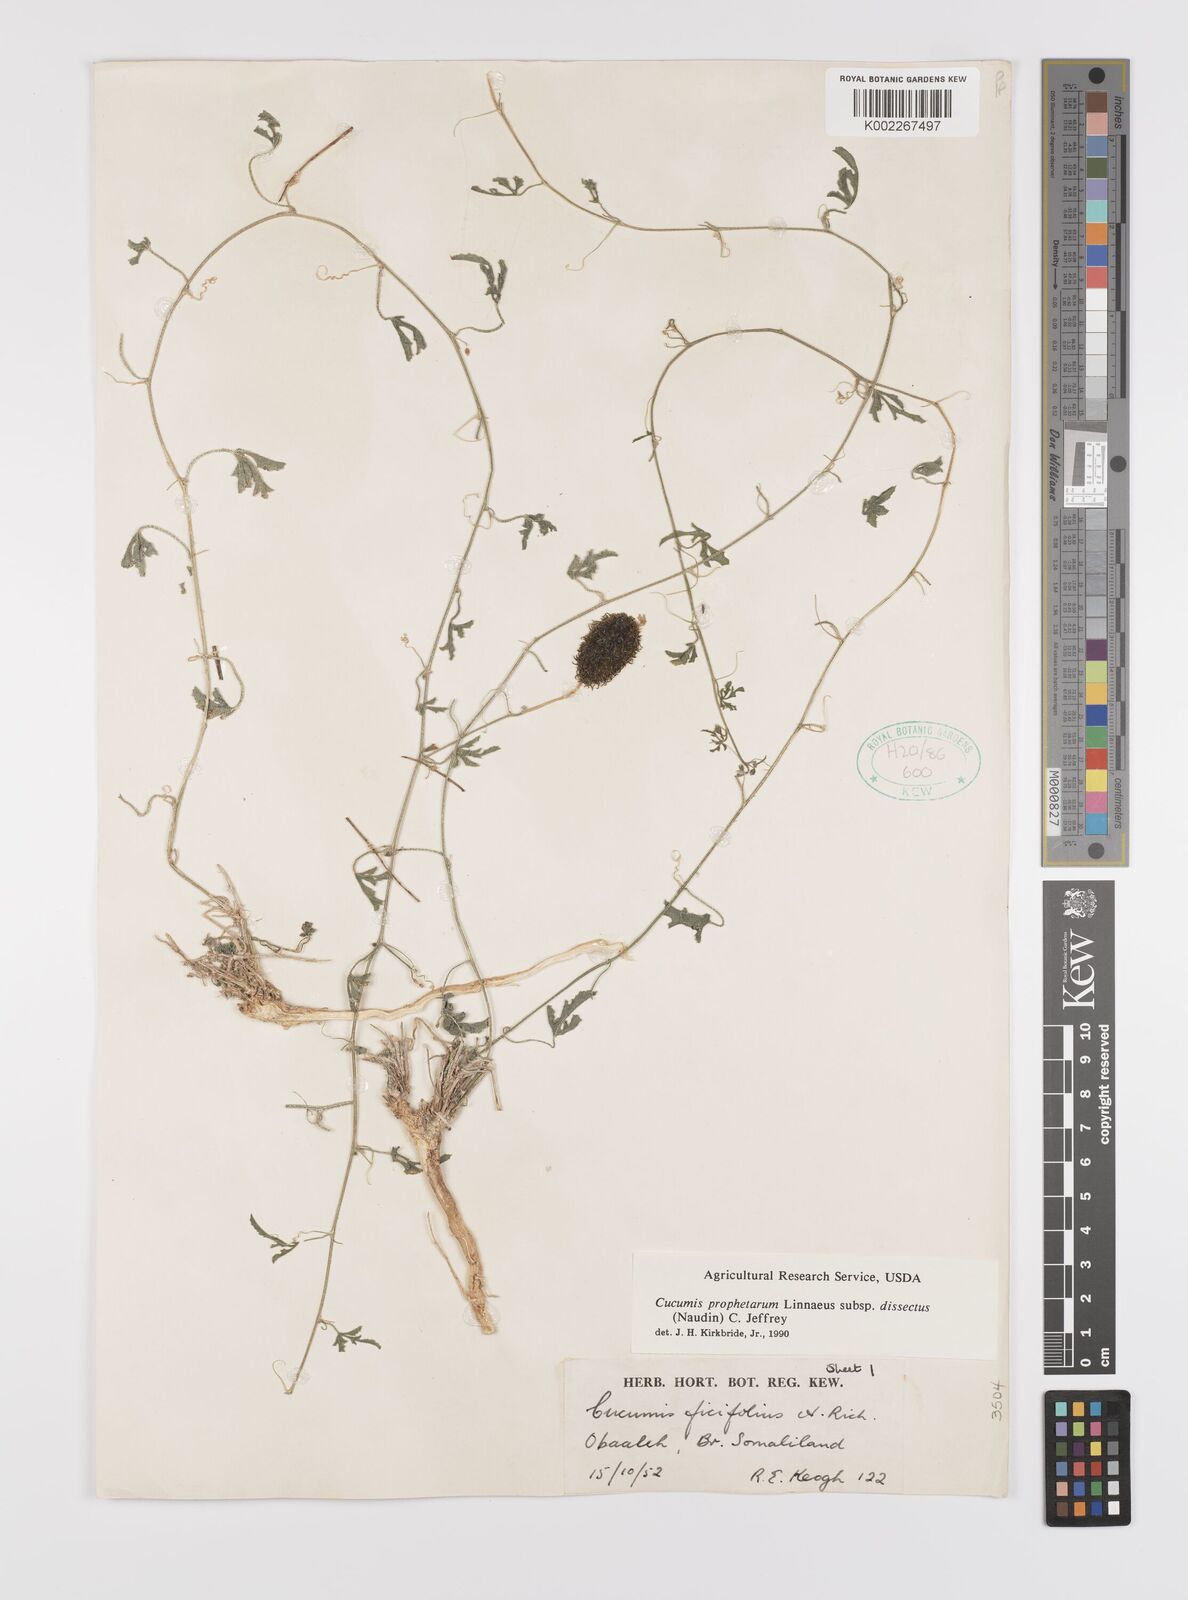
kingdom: Plantae
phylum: Tracheophyta
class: Magnoliopsida
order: Cucurbitales
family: Cucurbitaceae
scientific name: Cucurbitaceae
